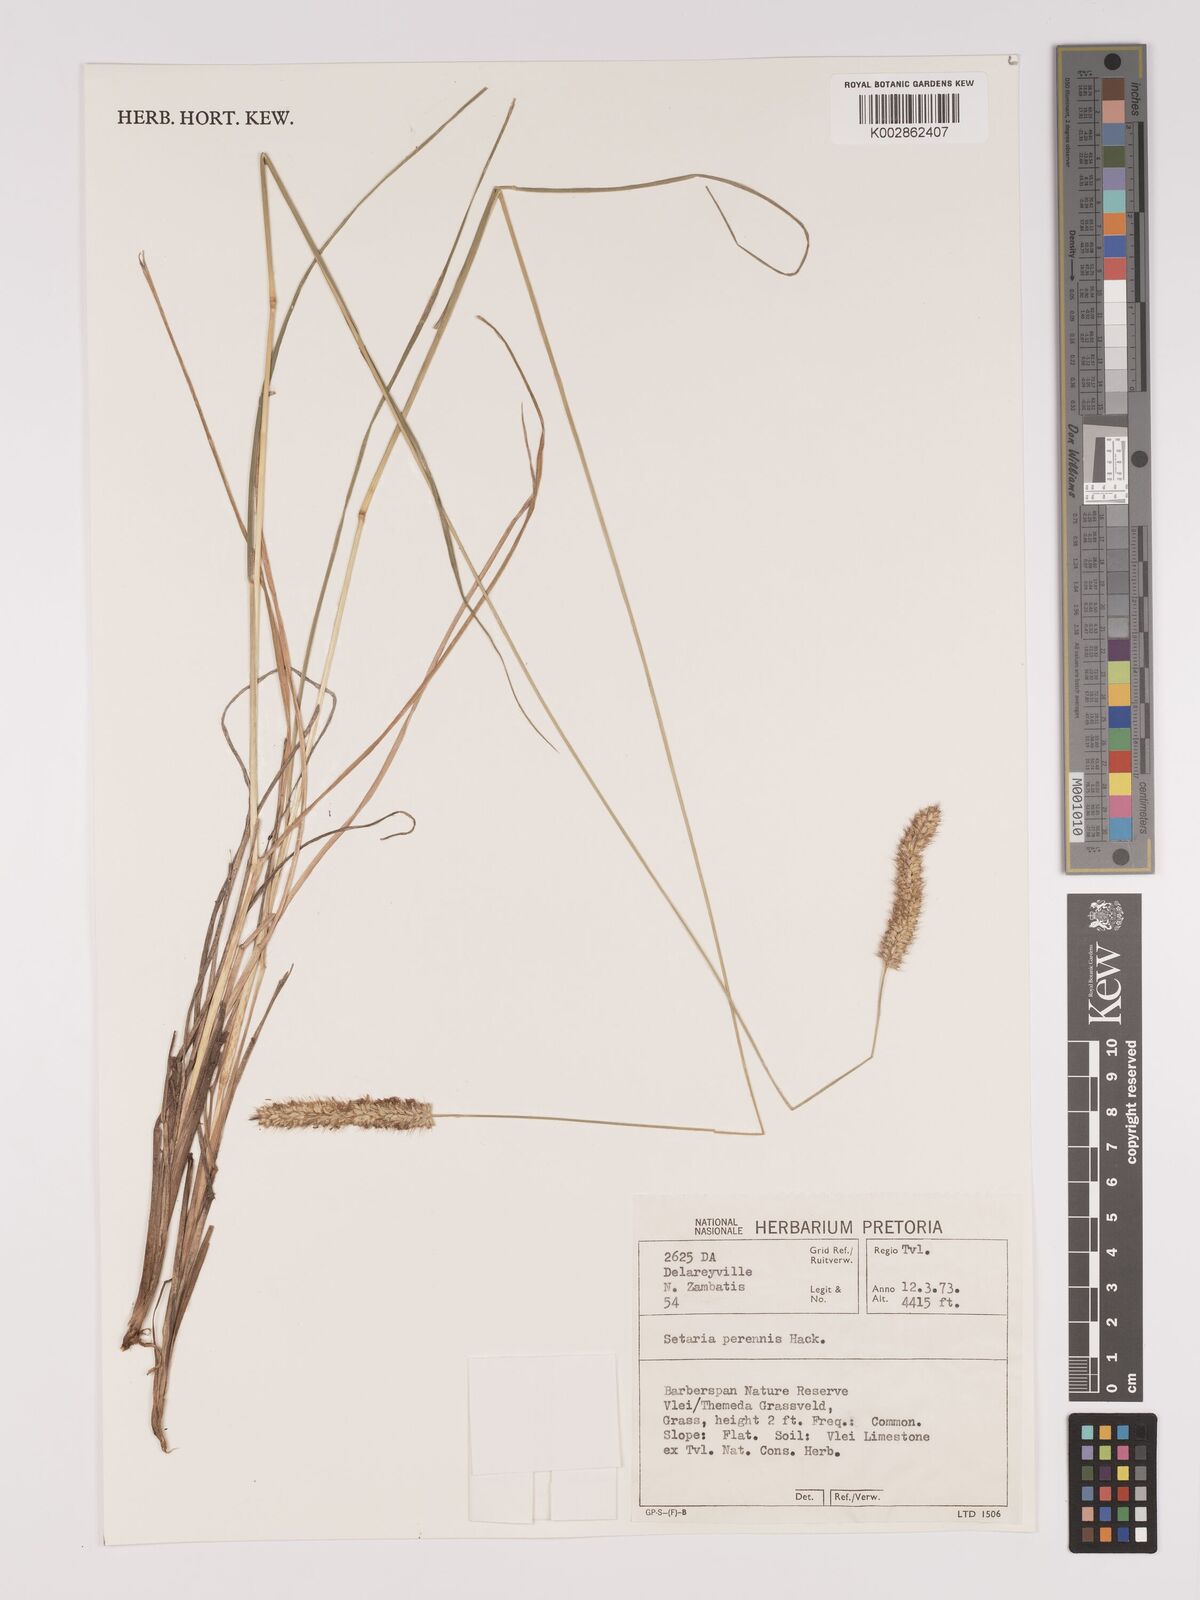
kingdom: Plantae
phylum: Tracheophyta
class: Liliopsida
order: Poales
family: Poaceae
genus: Setaria
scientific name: Setaria sphacelata
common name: African bristlegrass
